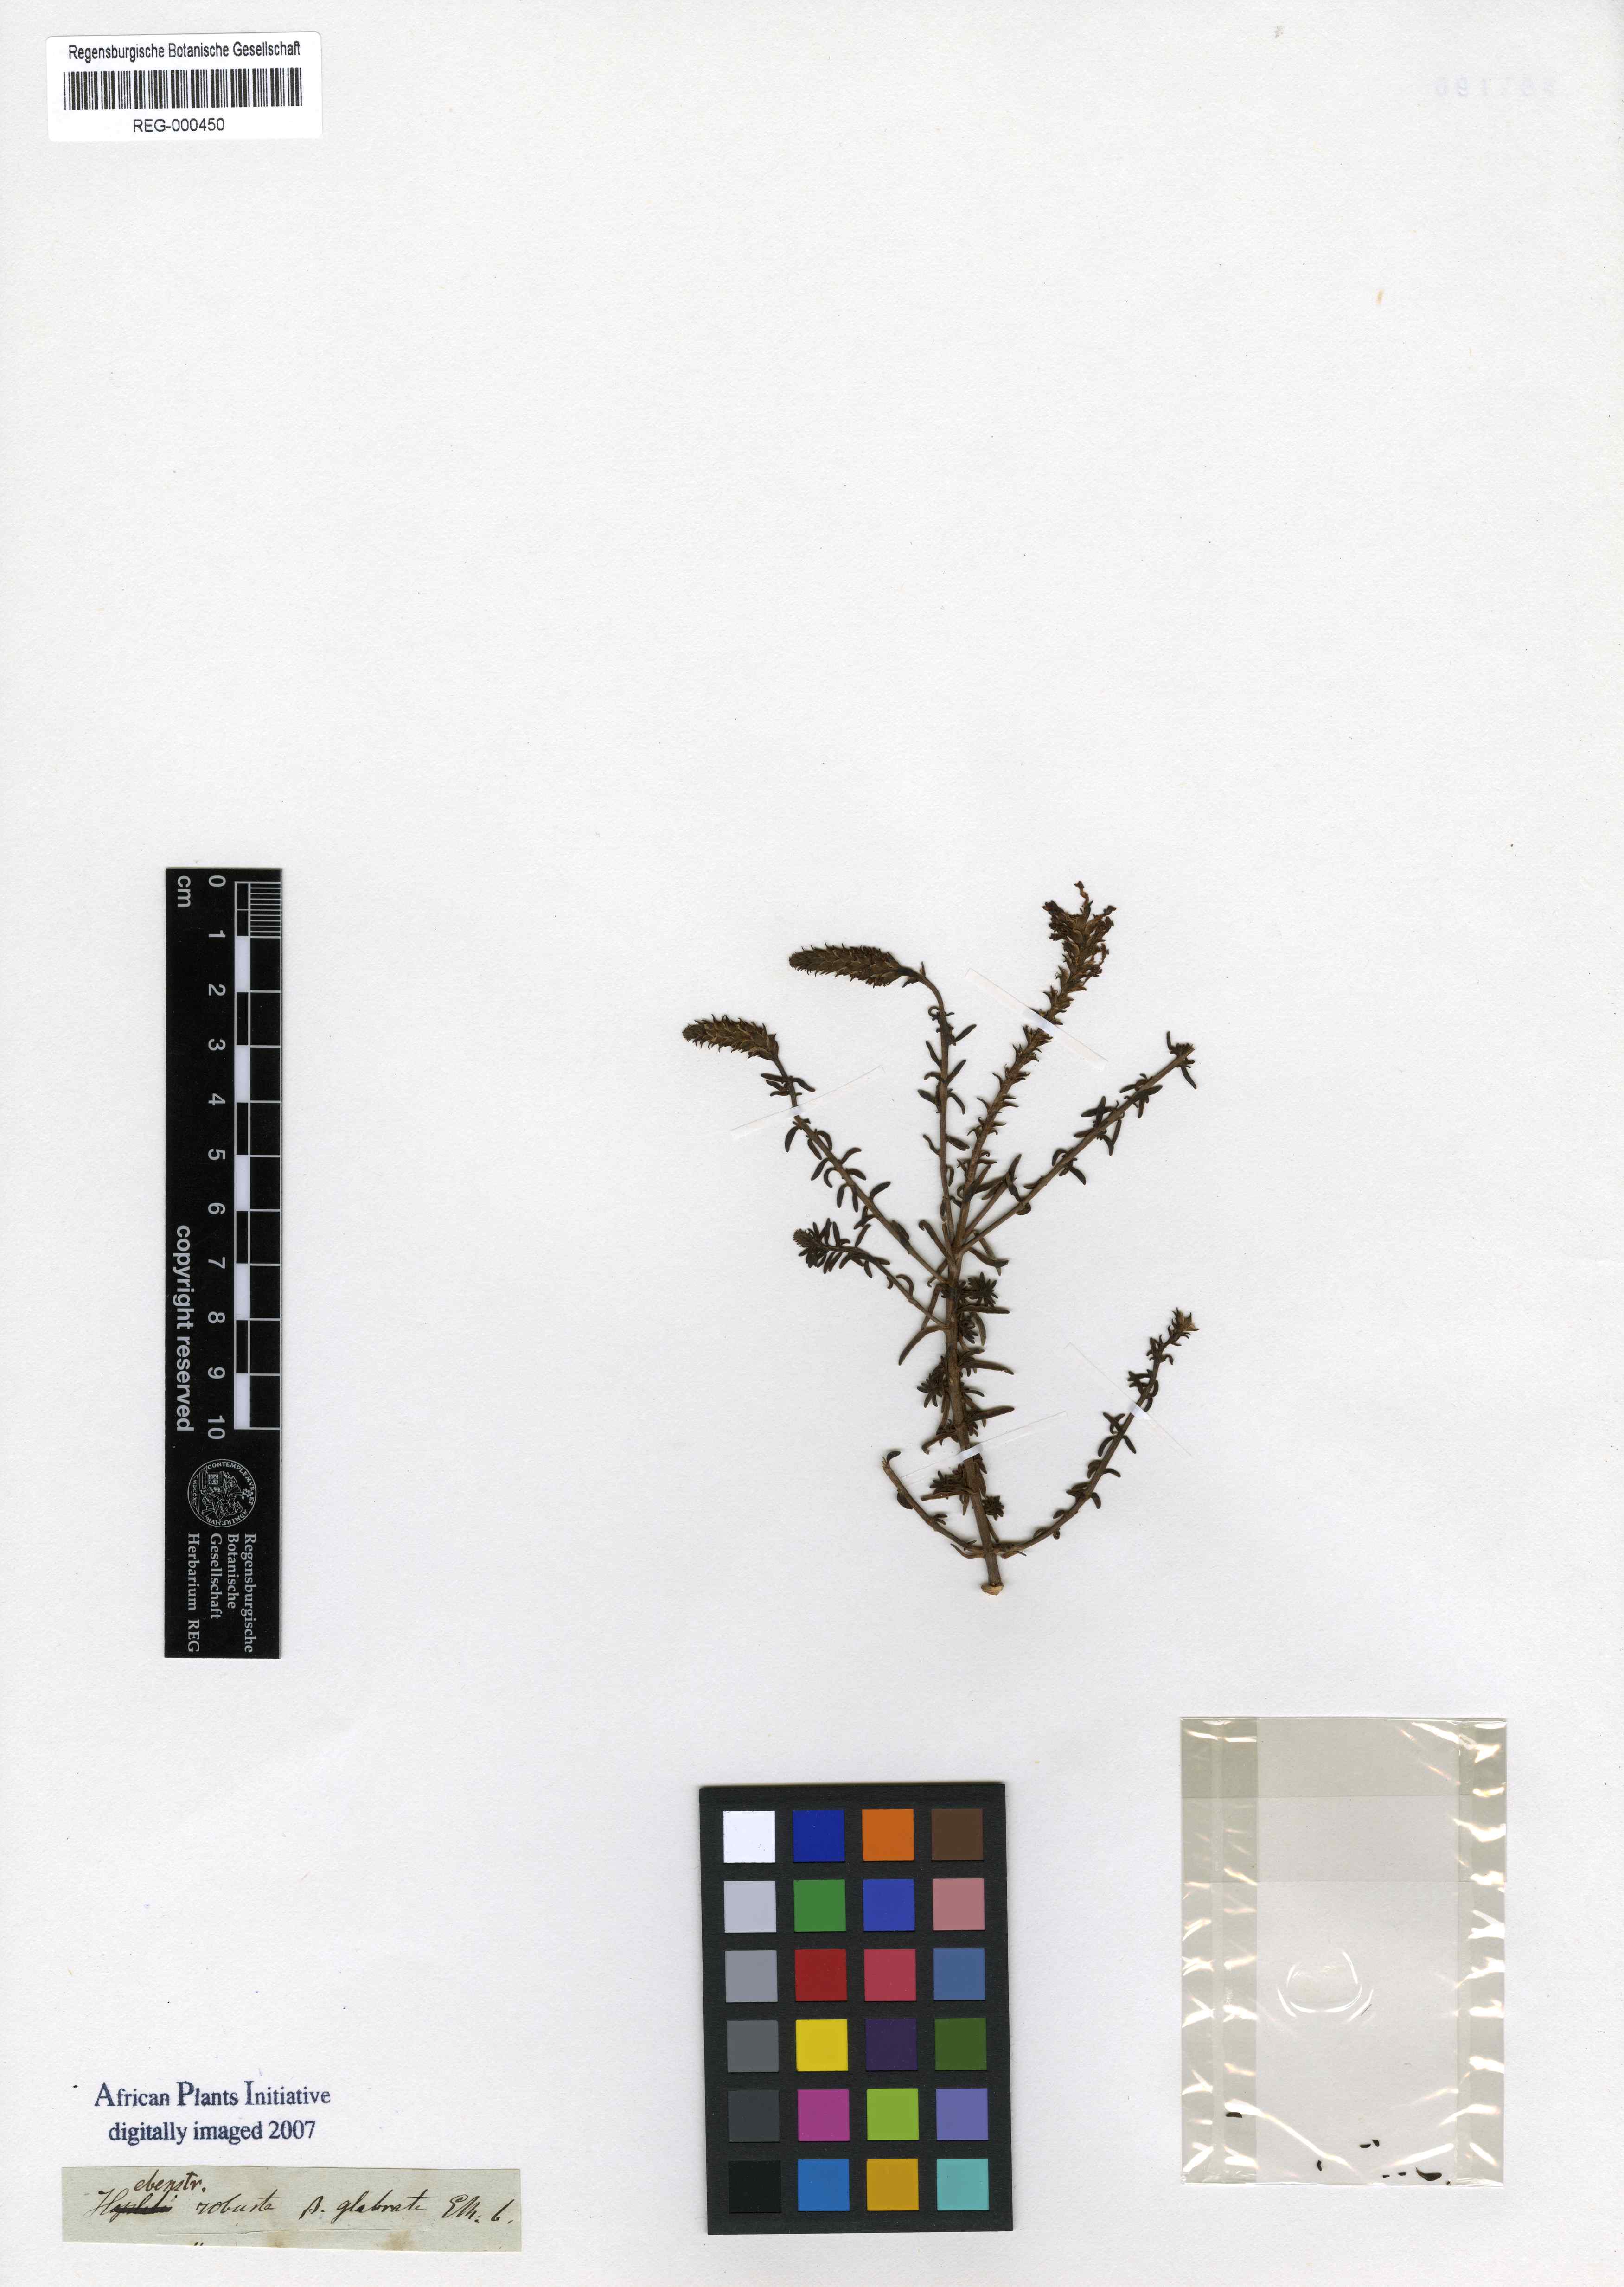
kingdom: Plantae
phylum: Tracheophyta
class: Magnoliopsida
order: Lamiales
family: Scrophulariaceae
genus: Hebenstretia
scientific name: Hebenstretia robusta
